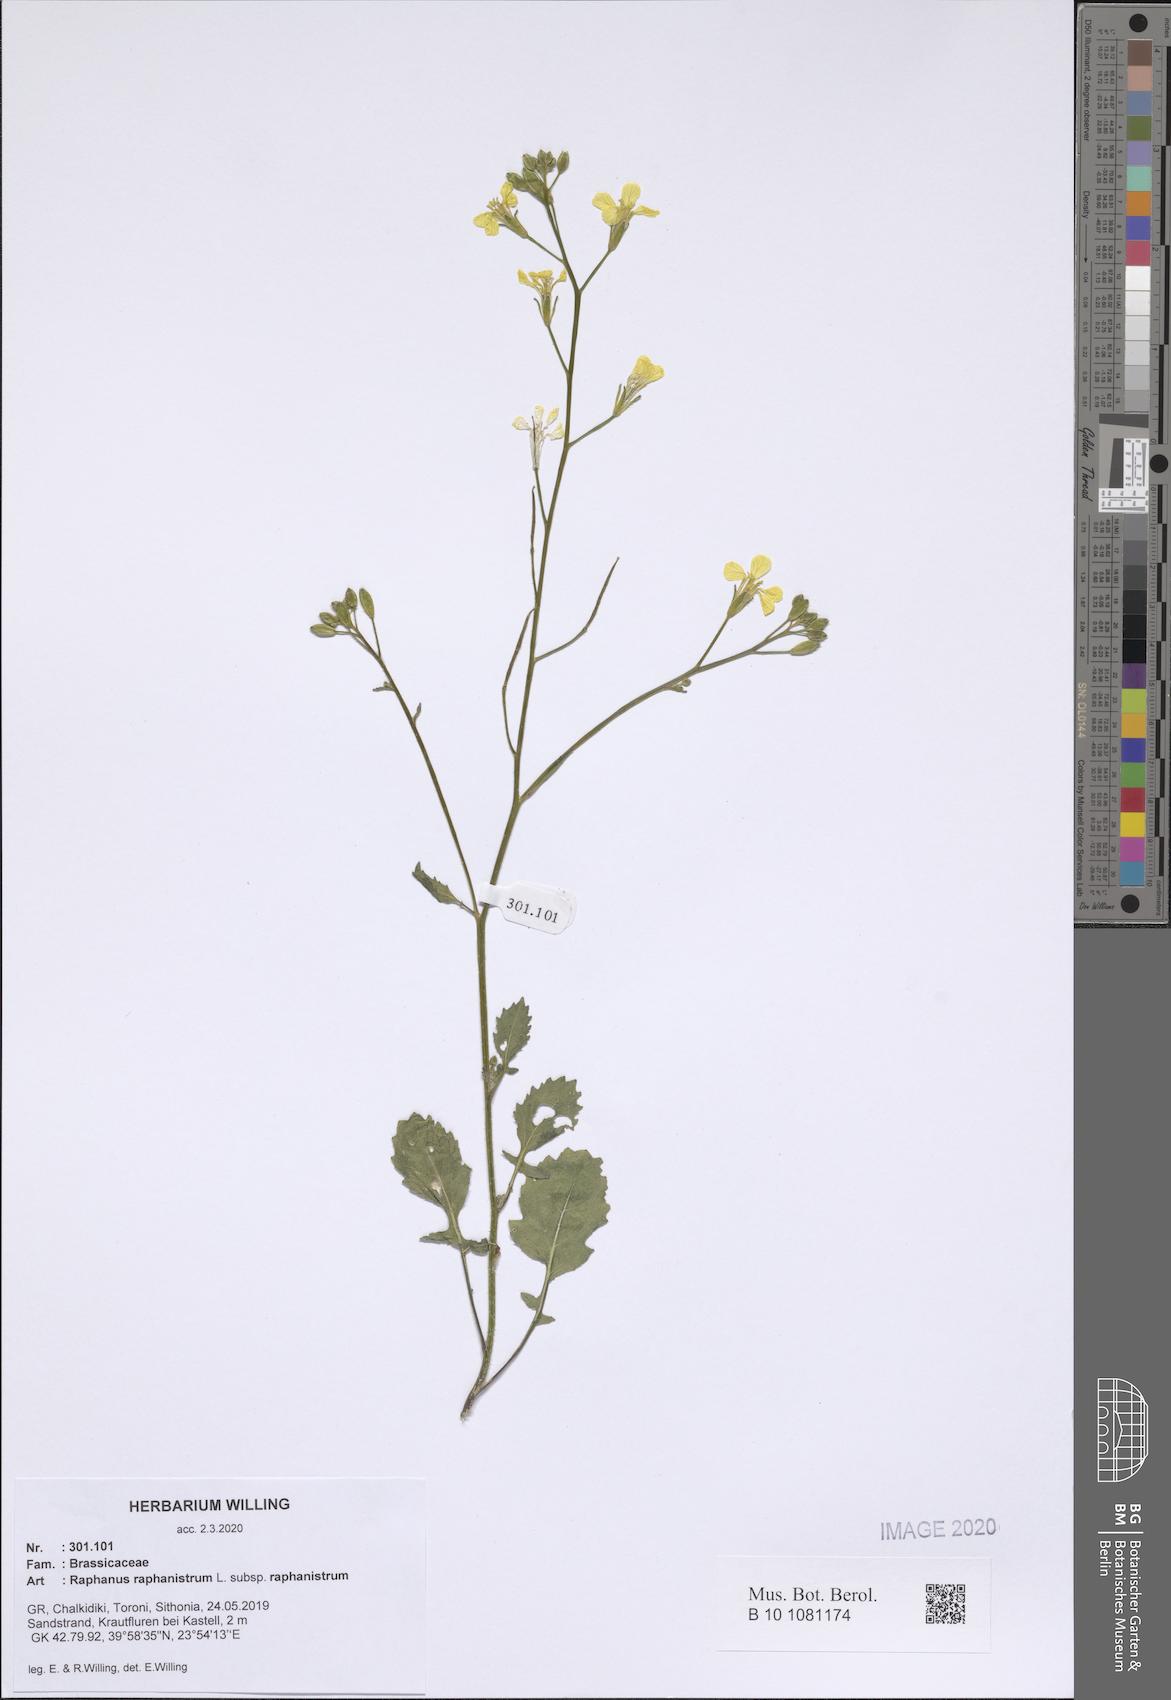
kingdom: Plantae
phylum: Tracheophyta
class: Magnoliopsida
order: Brassicales
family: Brassicaceae
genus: Raphanus
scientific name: Raphanus raphanistrum
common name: Wild radish
